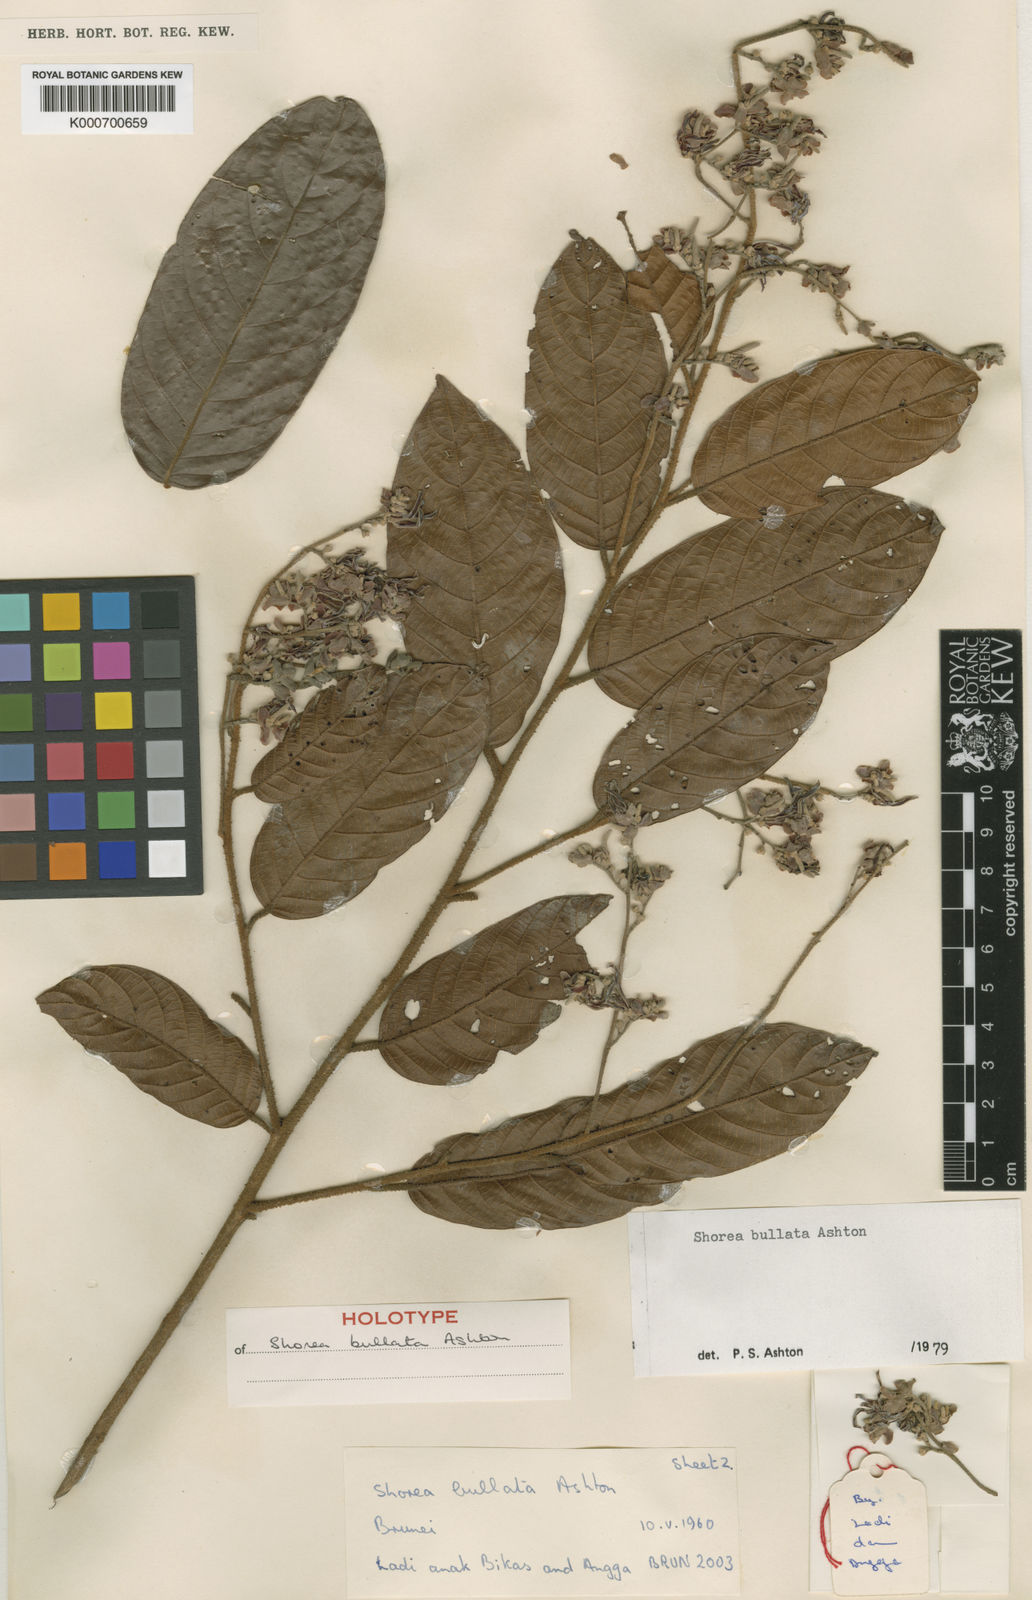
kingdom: Plantae
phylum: Tracheophyta
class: Magnoliopsida
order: Malvales
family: Dipterocarpaceae
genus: Shorea
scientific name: Shorea bullata
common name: Dark red meranti
